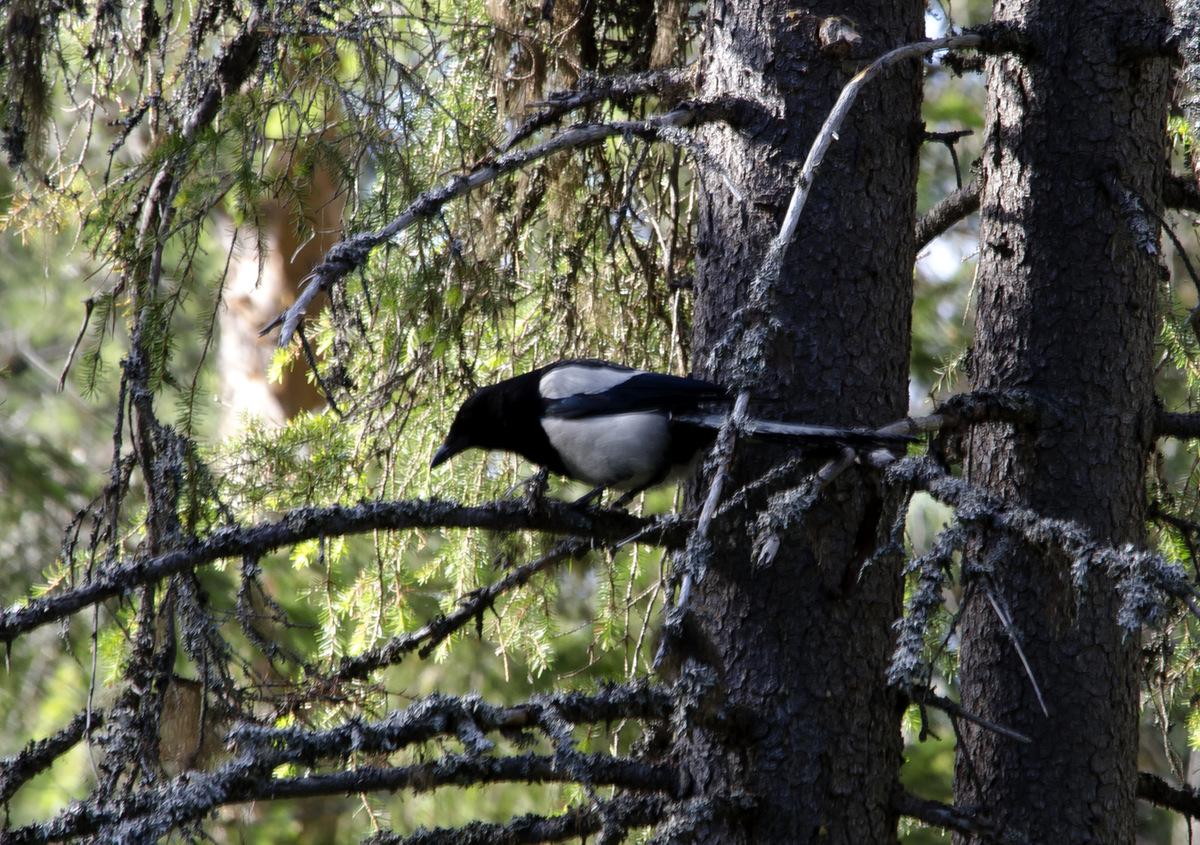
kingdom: Animalia
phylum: Chordata
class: Aves
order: Passeriformes
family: Corvidae
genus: Pica
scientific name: Pica pica
